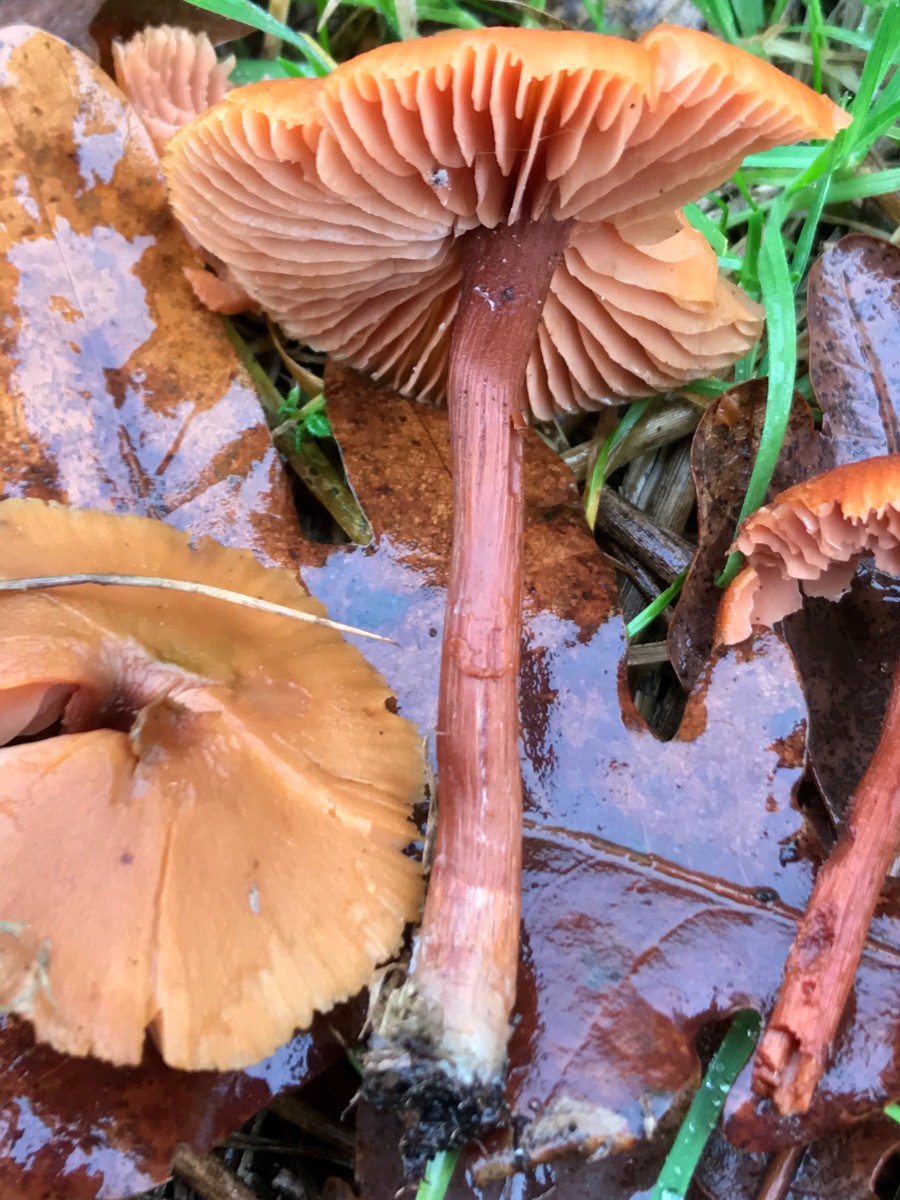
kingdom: Fungi
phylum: Basidiomycota
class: Agaricomycetes
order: Agaricales
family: Hydnangiaceae
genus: Laccaria
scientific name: Laccaria laccata
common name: rød ametysthat
